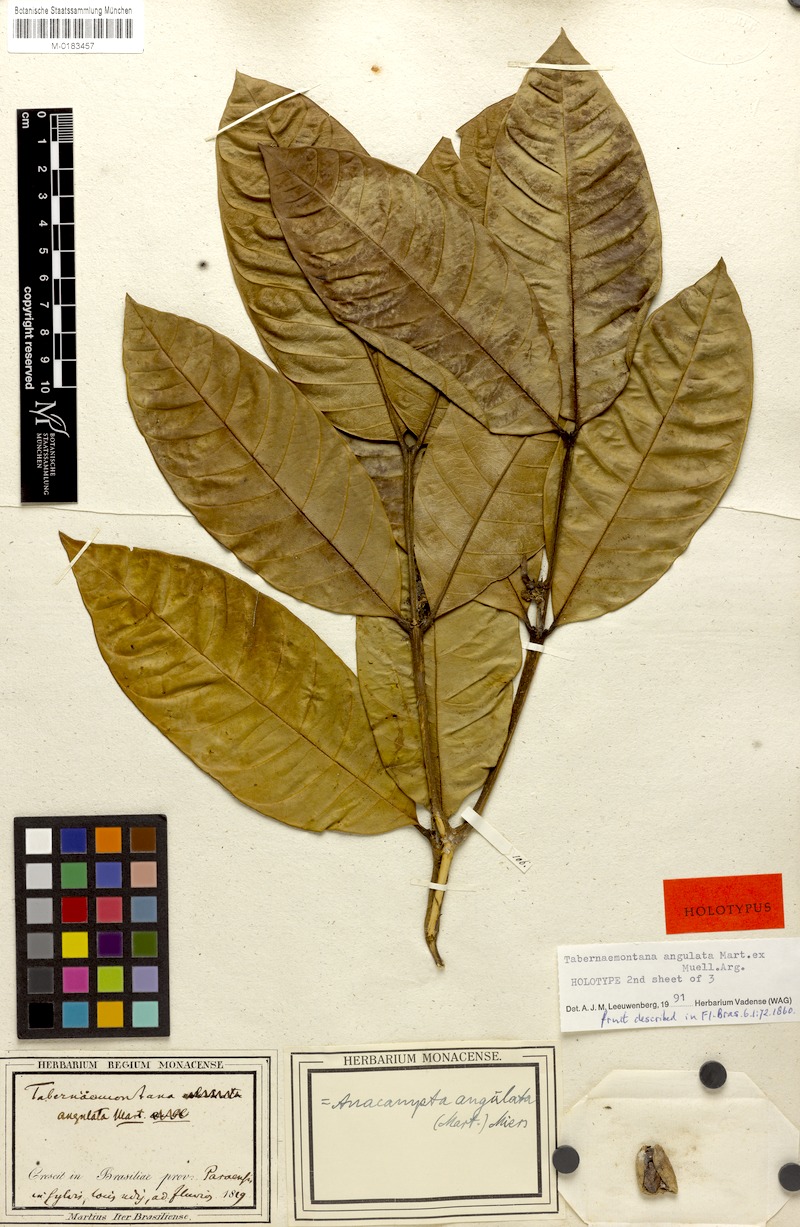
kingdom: Plantae
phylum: Tracheophyta
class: Magnoliopsida
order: Gentianales
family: Apocynaceae
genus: Tabernaemontana
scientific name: Tabernaemontana angulata
